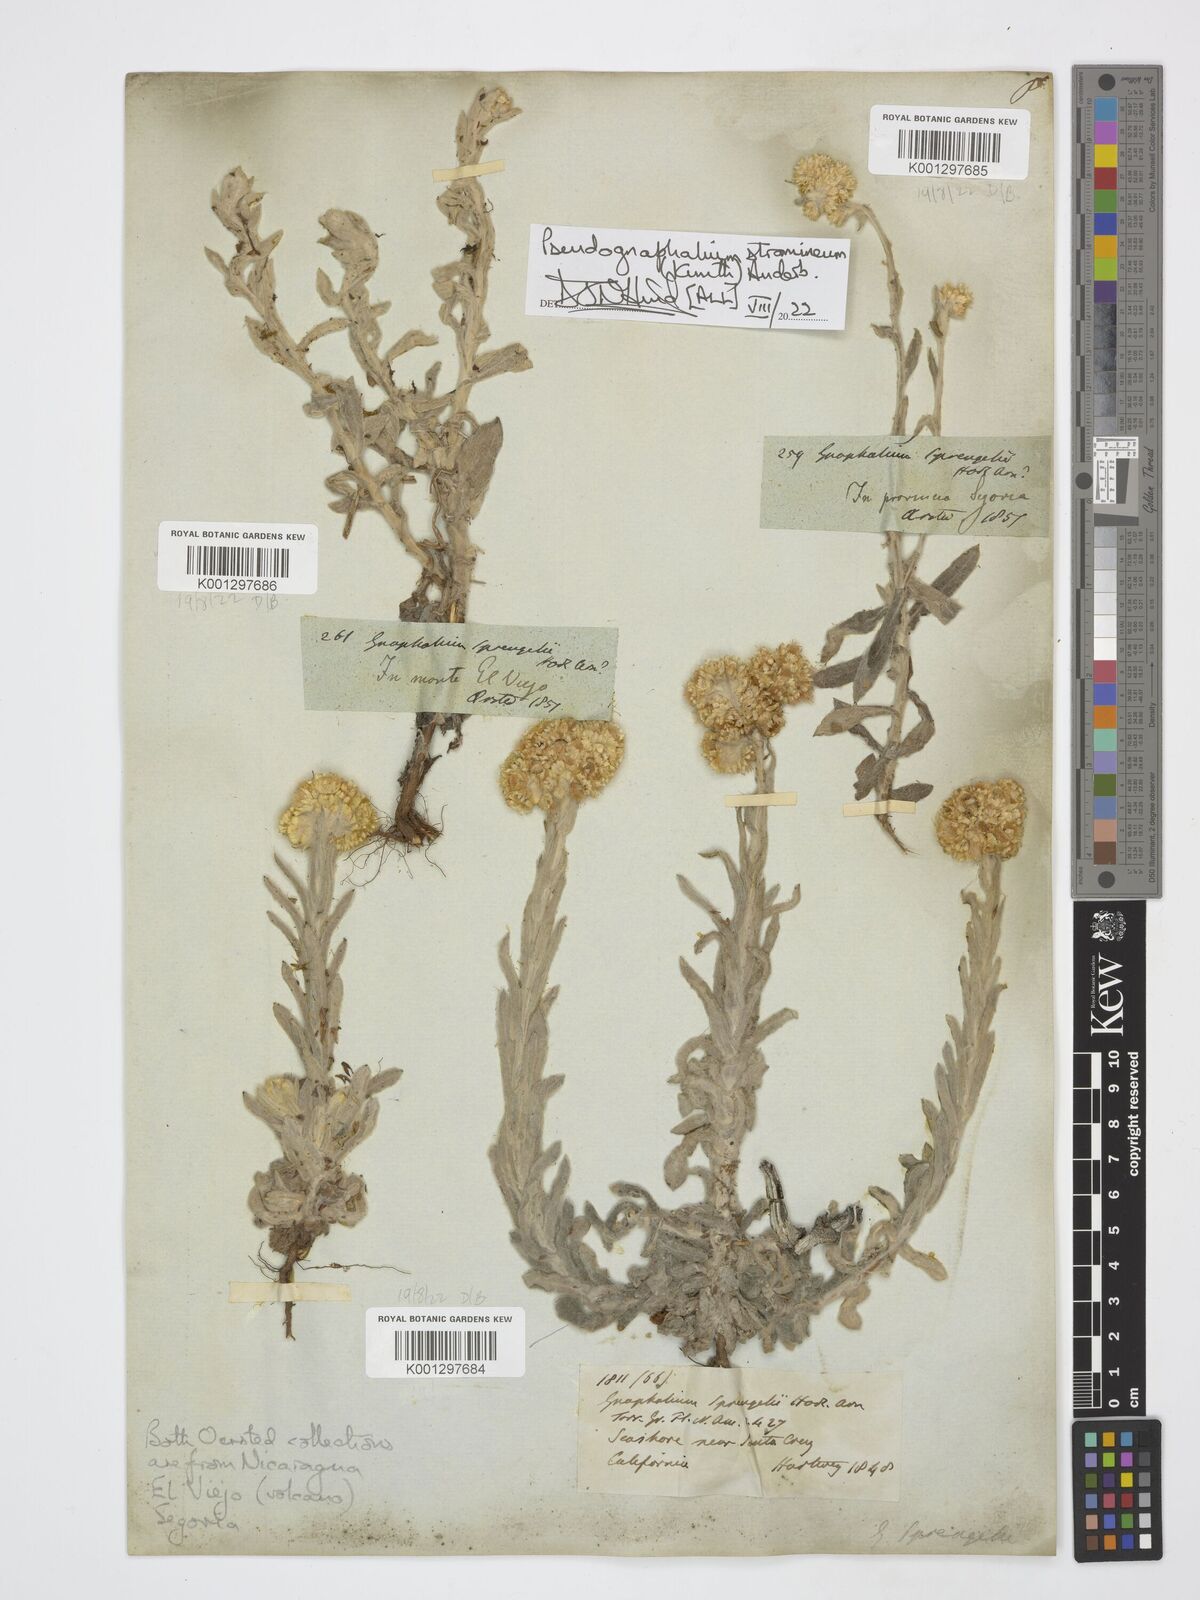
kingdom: Plantae
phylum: Tracheophyta
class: Magnoliopsida
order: Asterales
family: Asteraceae
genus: Pseudognaphalium
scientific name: Pseudognaphalium stramineum
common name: Cotton-batting-plant
